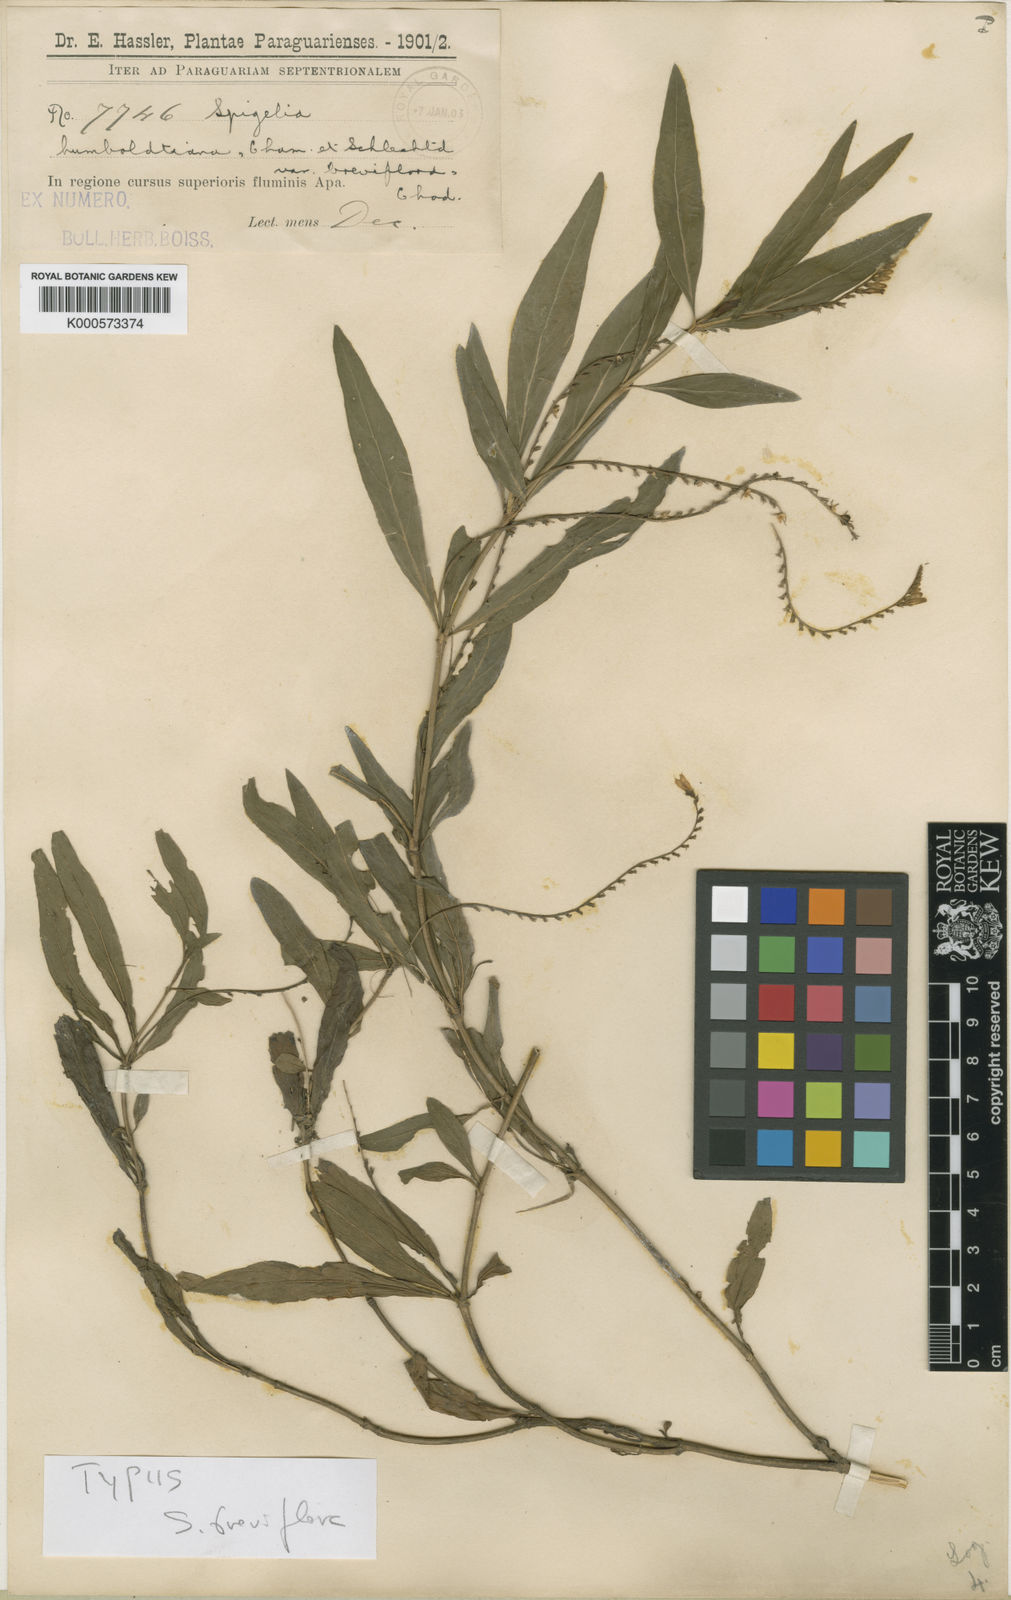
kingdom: Plantae
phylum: Tracheophyta
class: Magnoliopsida
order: Gentianales
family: Loganiaceae
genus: Spigelia
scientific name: Spigelia humboldtiana
